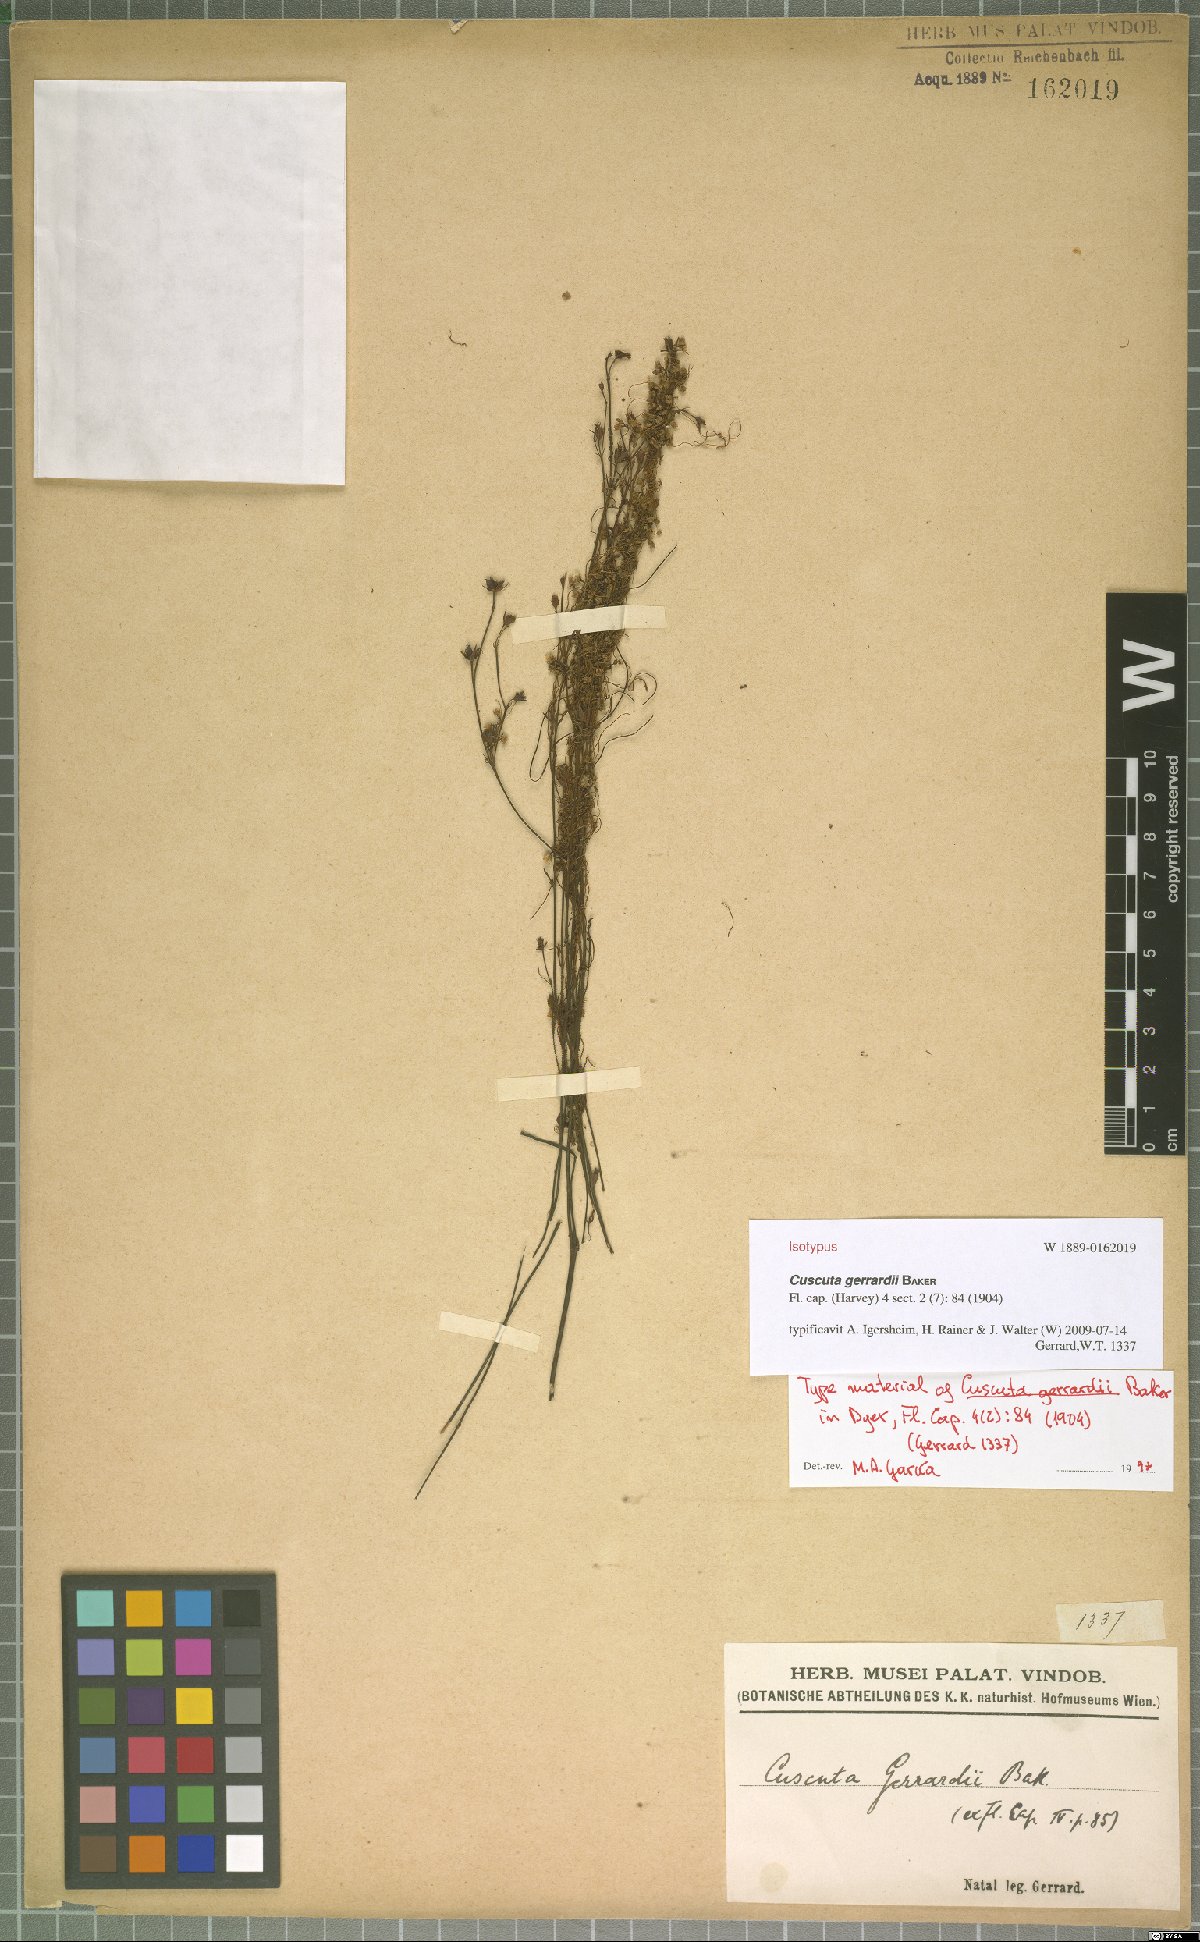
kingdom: Plantae
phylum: Tracheophyta
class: Magnoliopsida
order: Solanales
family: Convolvulaceae
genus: Cuscuta
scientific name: Cuscuta gerrardii
